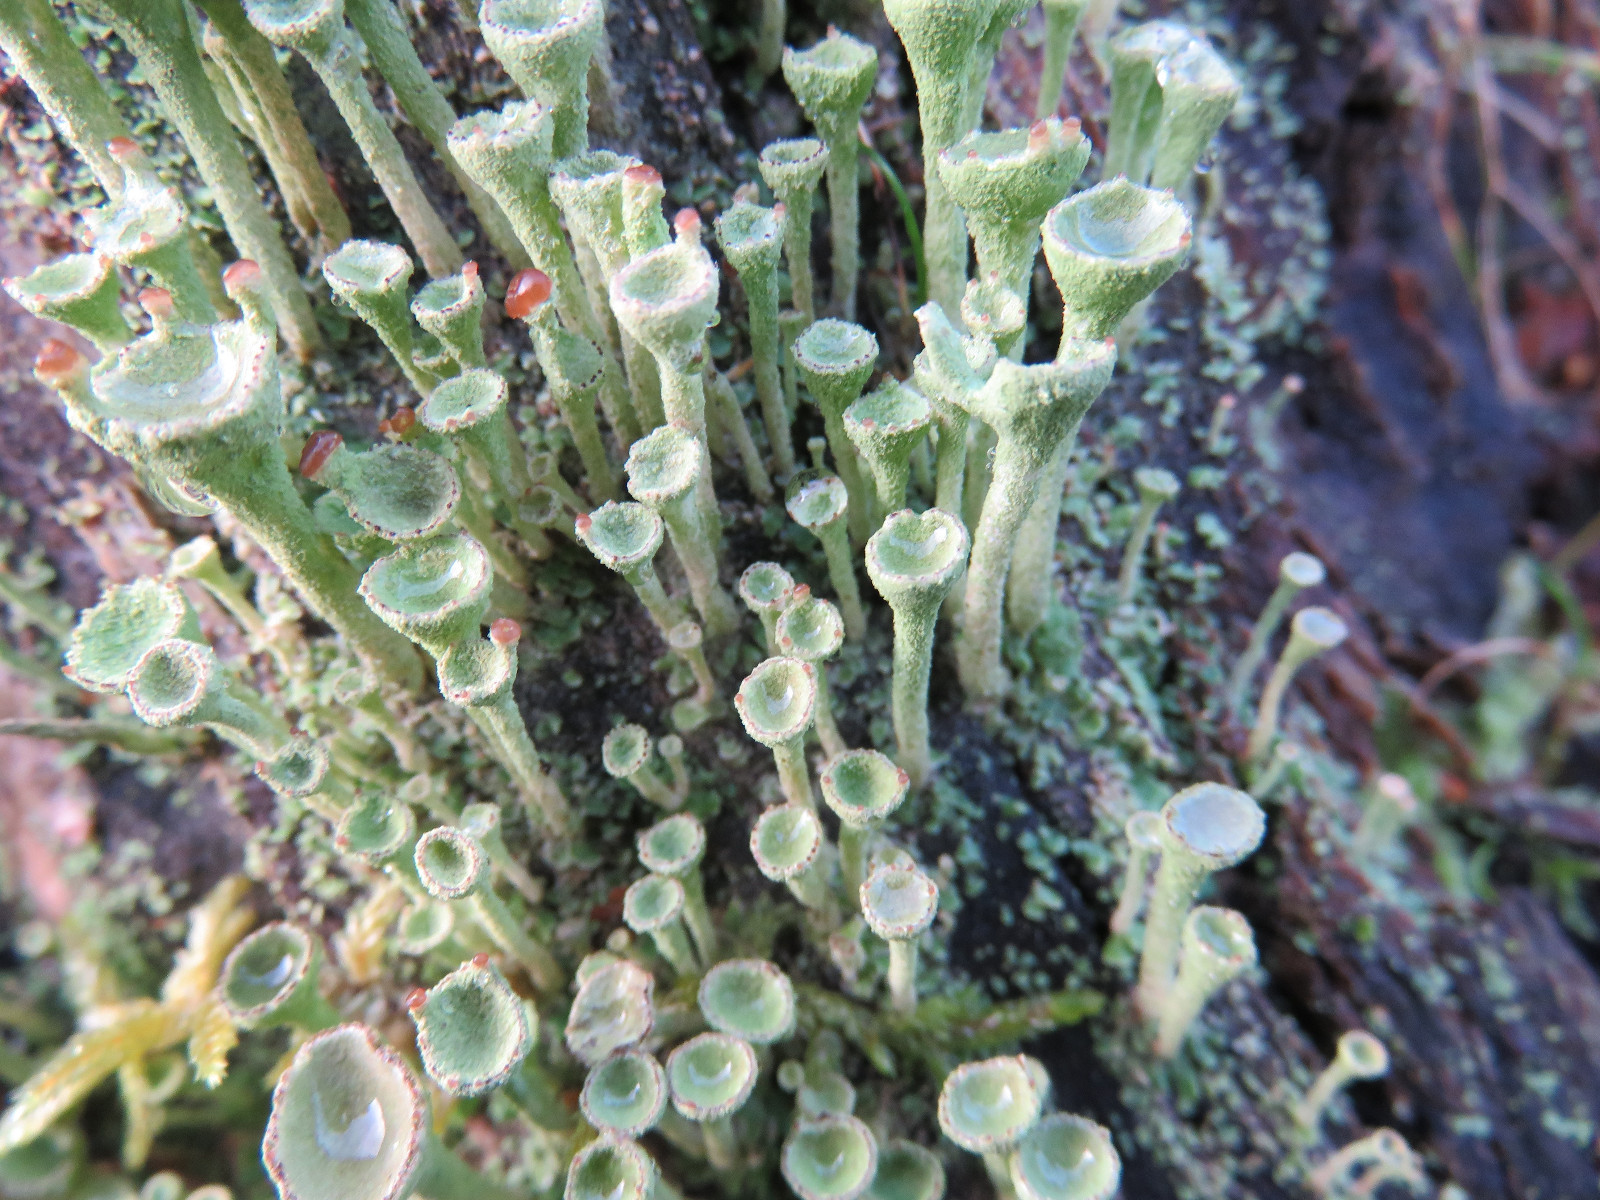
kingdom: Fungi
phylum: Ascomycota
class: Lecanoromycetes
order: Lecanorales
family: Cladoniaceae
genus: Cladonia
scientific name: Cladonia fimbriata
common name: bleggrøn bægerlav
